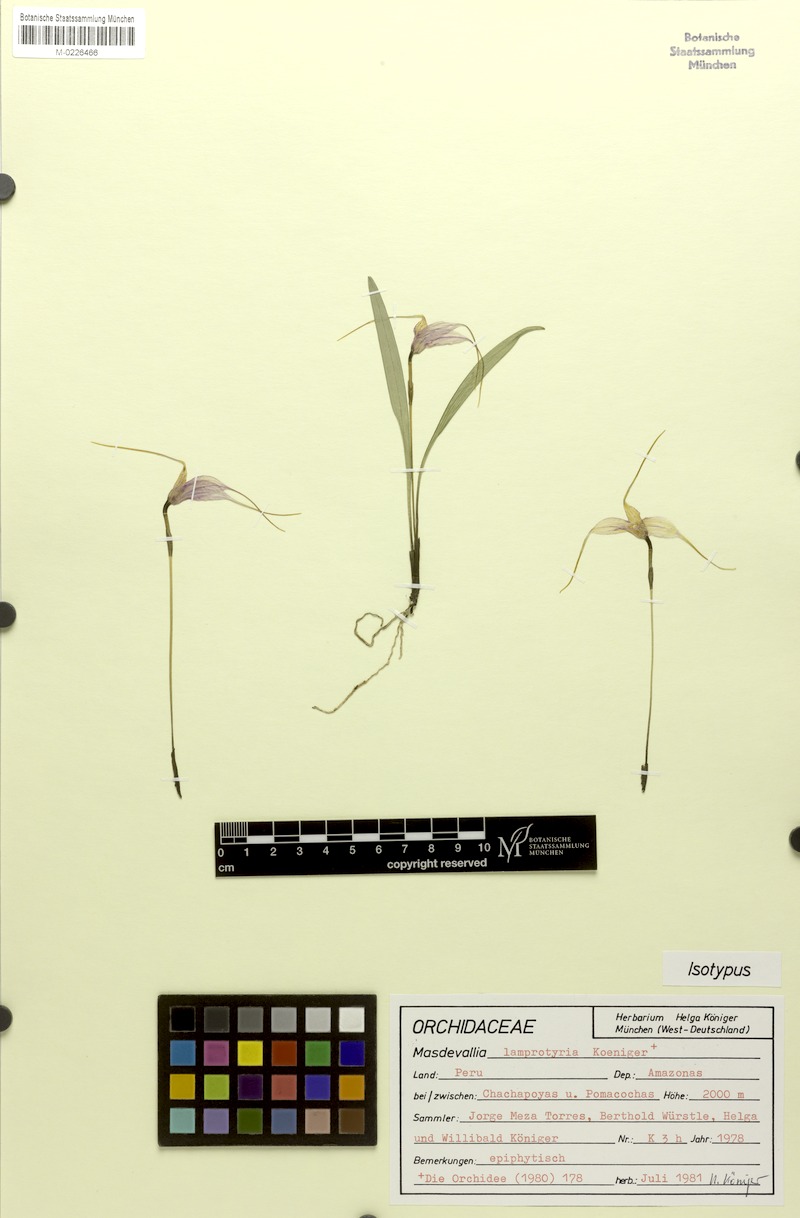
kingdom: Plantae
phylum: Tracheophyta
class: Liliopsida
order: Asparagales
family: Orchidaceae
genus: Masdevallia
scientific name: Masdevallia lamprotyria
